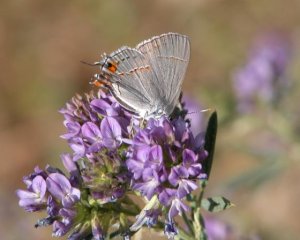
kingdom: Animalia
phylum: Arthropoda
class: Insecta
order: Lepidoptera
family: Lycaenidae
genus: Strymon
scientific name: Strymon melinus
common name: Gray Hairstreak
